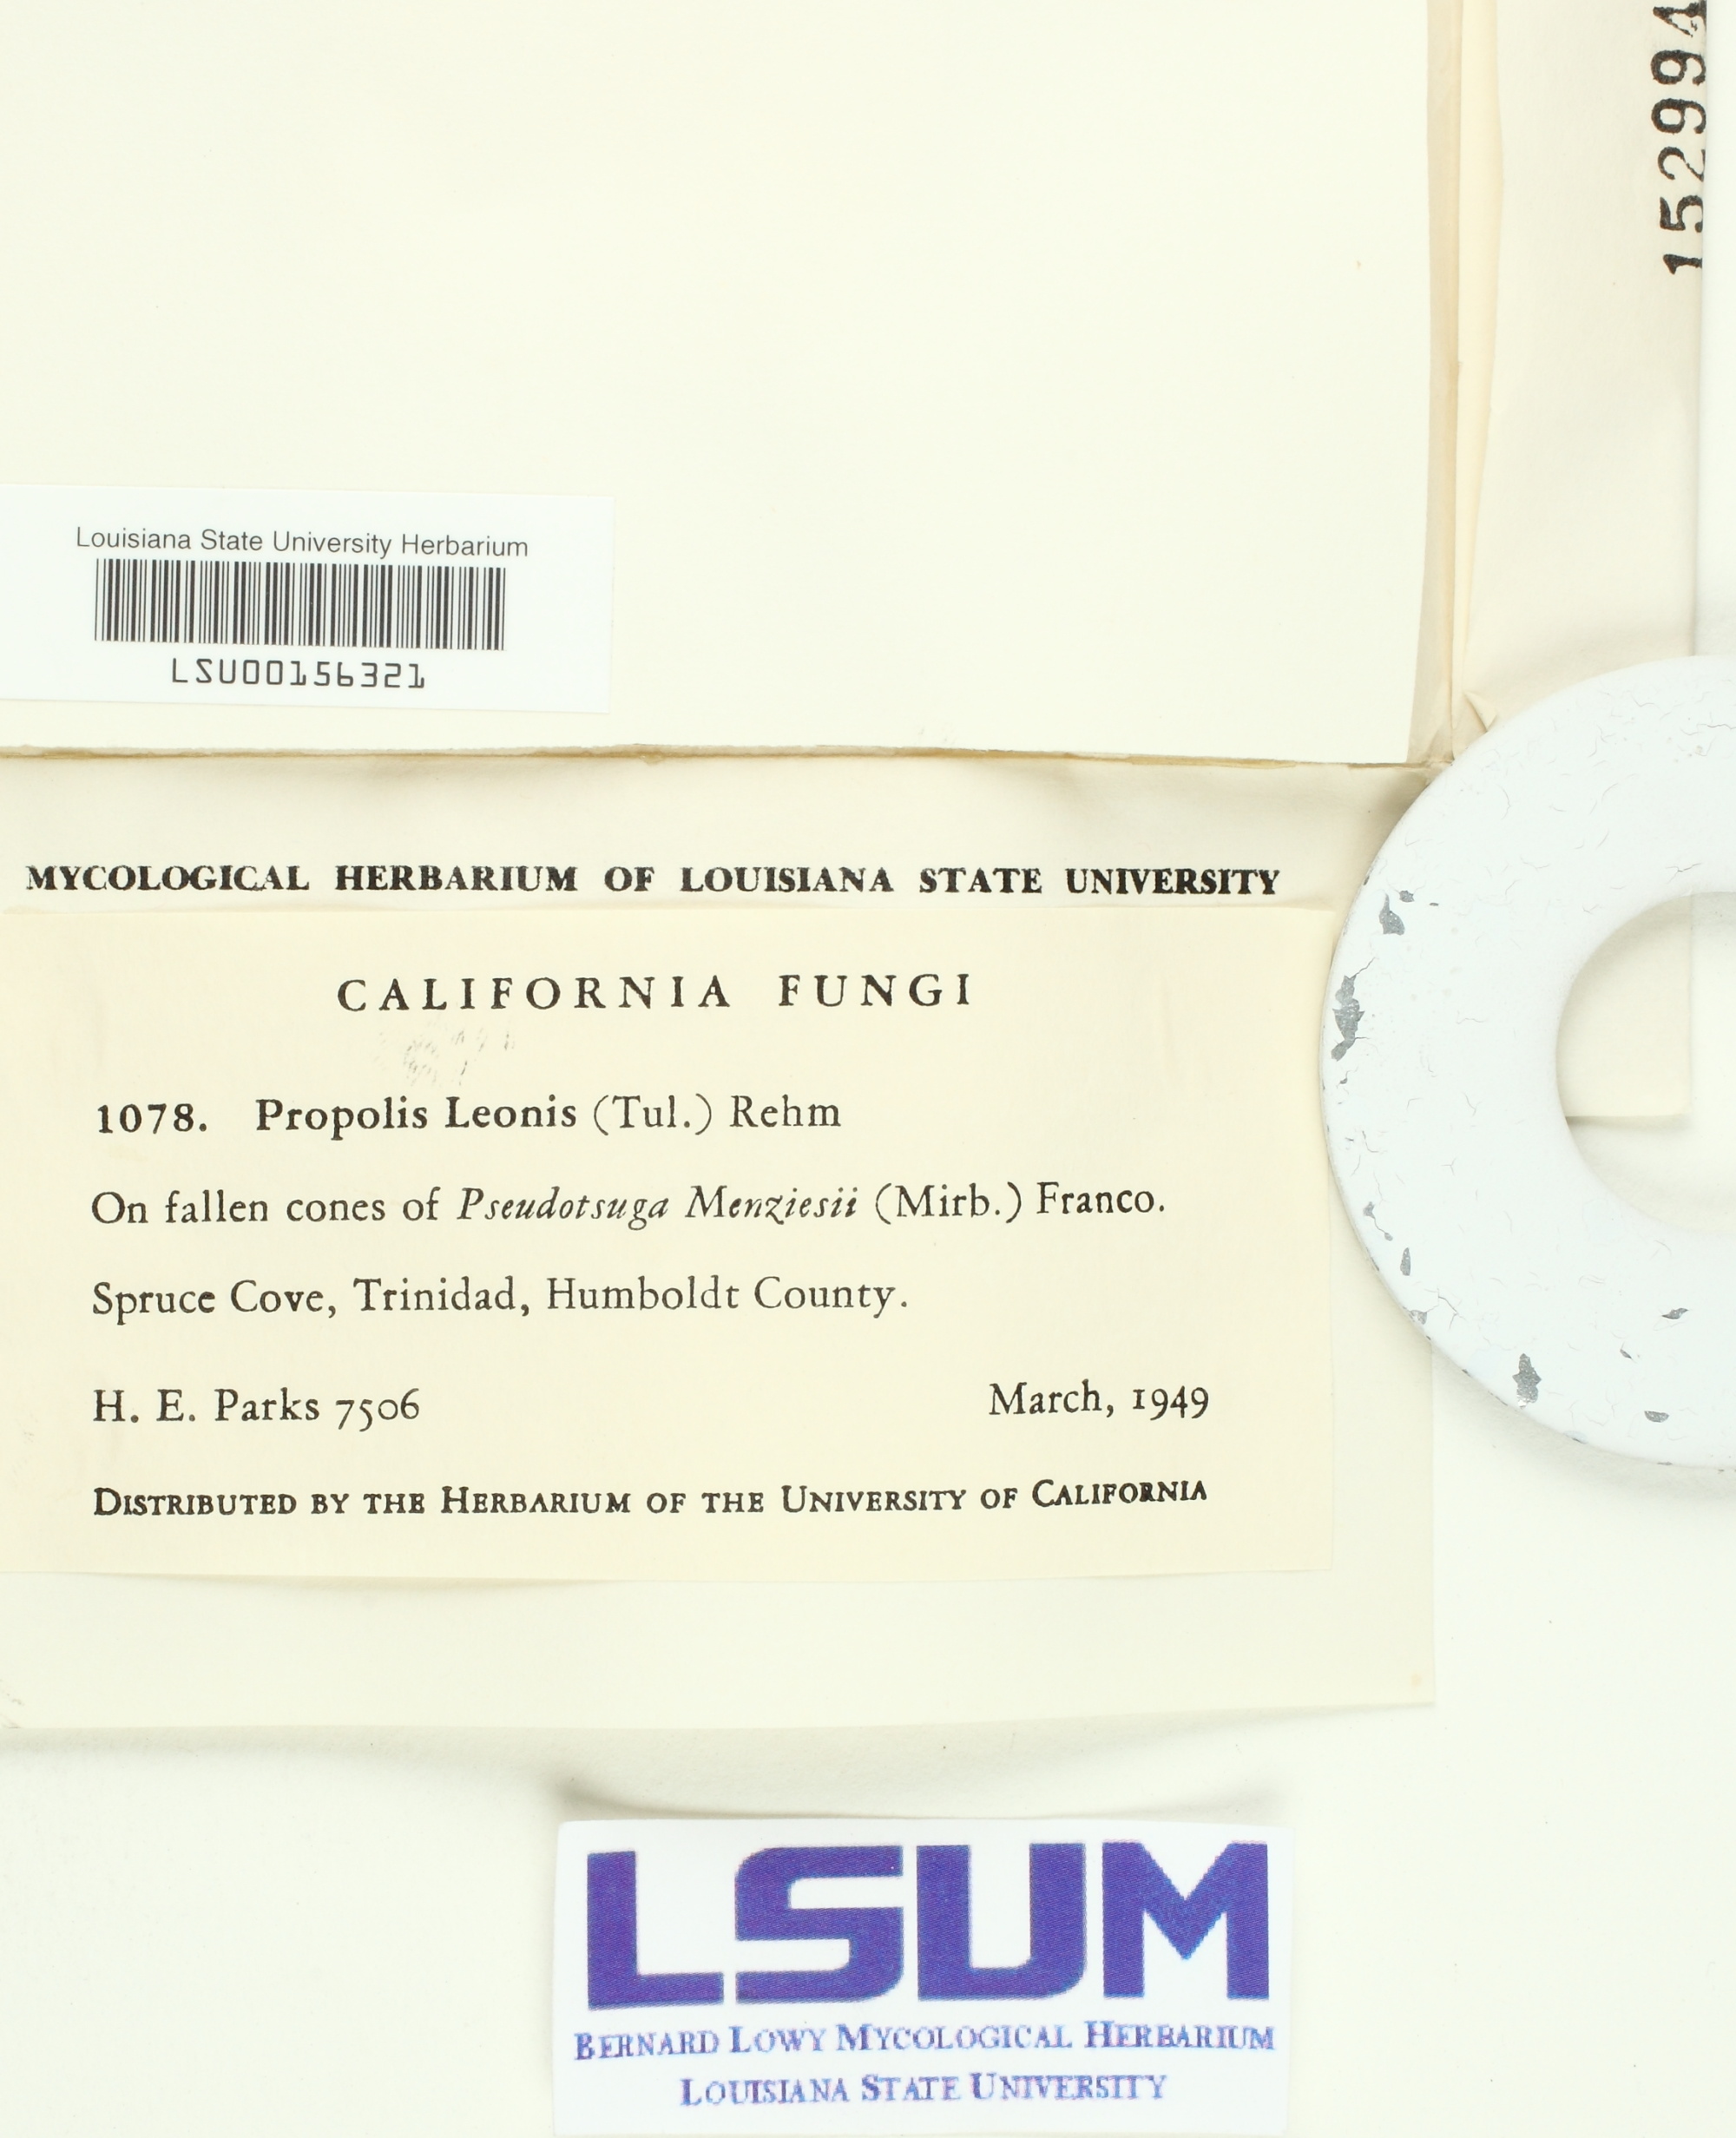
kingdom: Fungi
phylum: Ascomycota
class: Leotiomycetes
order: Chaetomellales
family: Marthamycetaceae
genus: Propolis
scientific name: Propolis leonis
